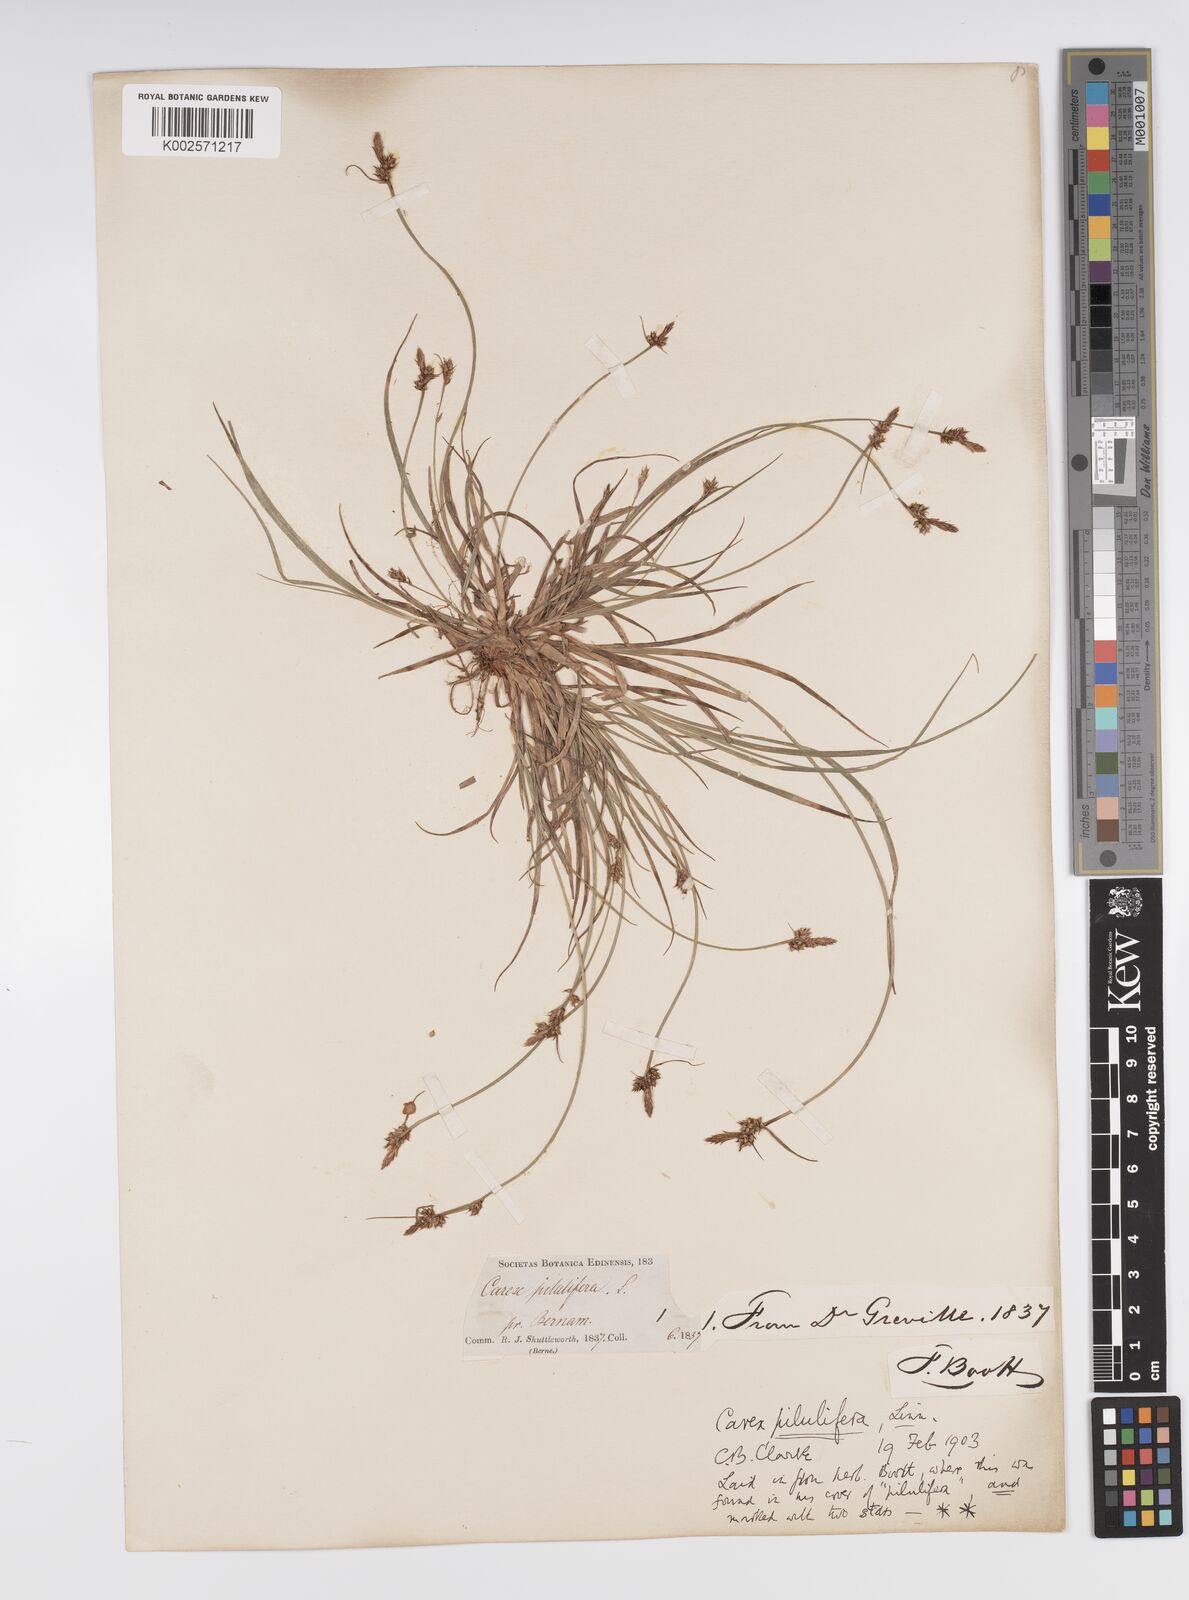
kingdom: Plantae
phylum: Tracheophyta
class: Liliopsida
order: Poales
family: Cyperaceae
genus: Carex
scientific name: Carex pilulifera
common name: Pill sedge
